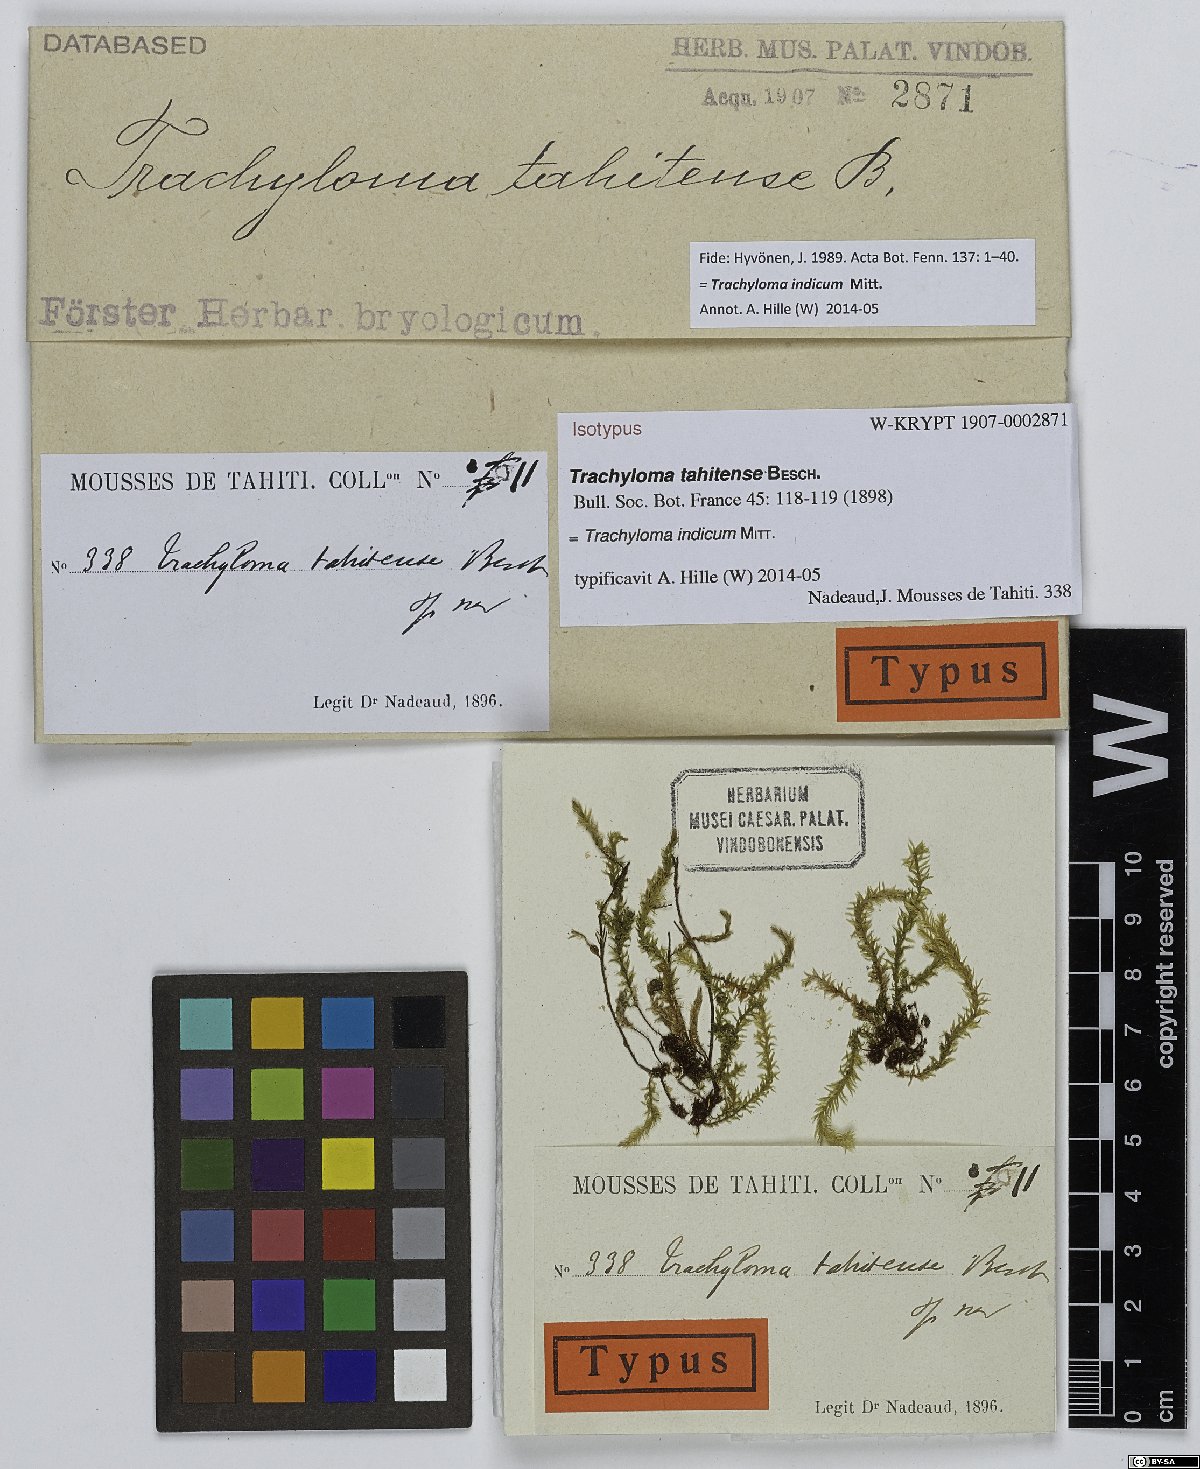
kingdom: Plantae
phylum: Bryophyta
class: Bryopsida
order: Hypnales
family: Trachylomataceae
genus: Trachyloma
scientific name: Trachyloma indicum
